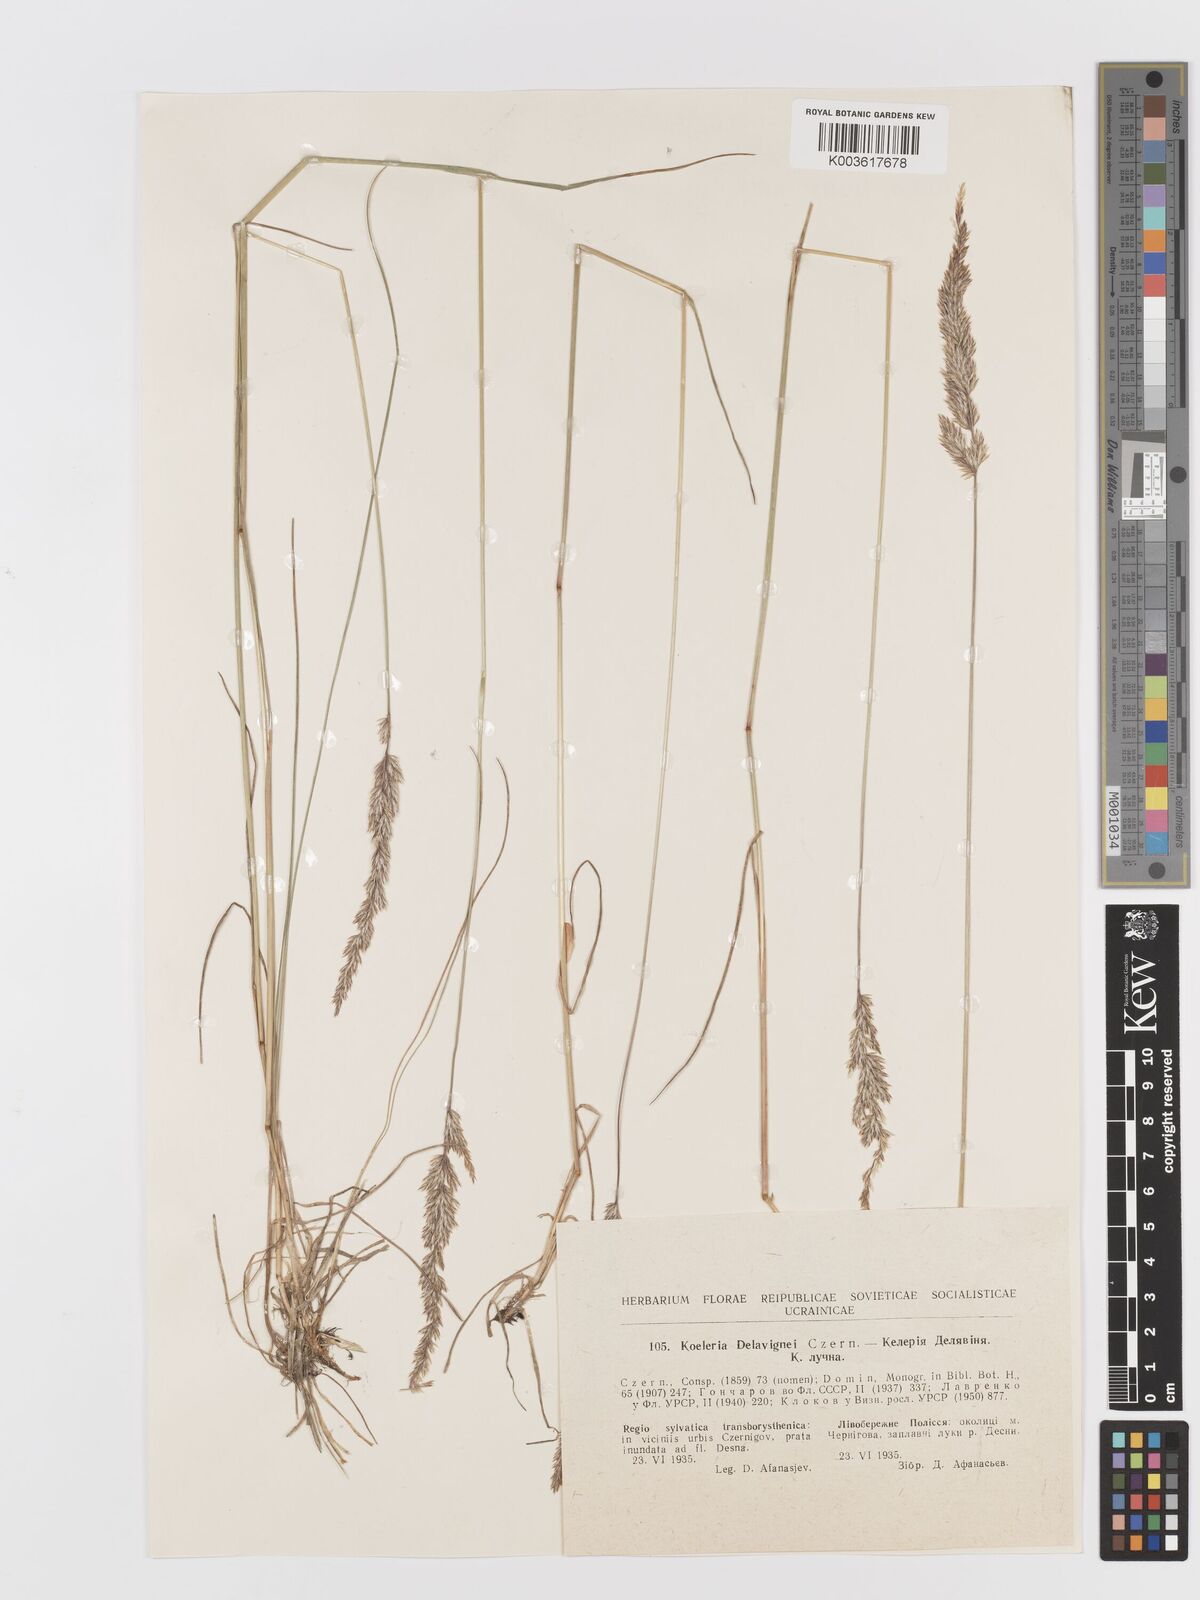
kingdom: Plantae
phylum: Tracheophyta
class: Liliopsida
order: Poales
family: Poaceae
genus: Koeleria
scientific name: Koeleria delavignei
